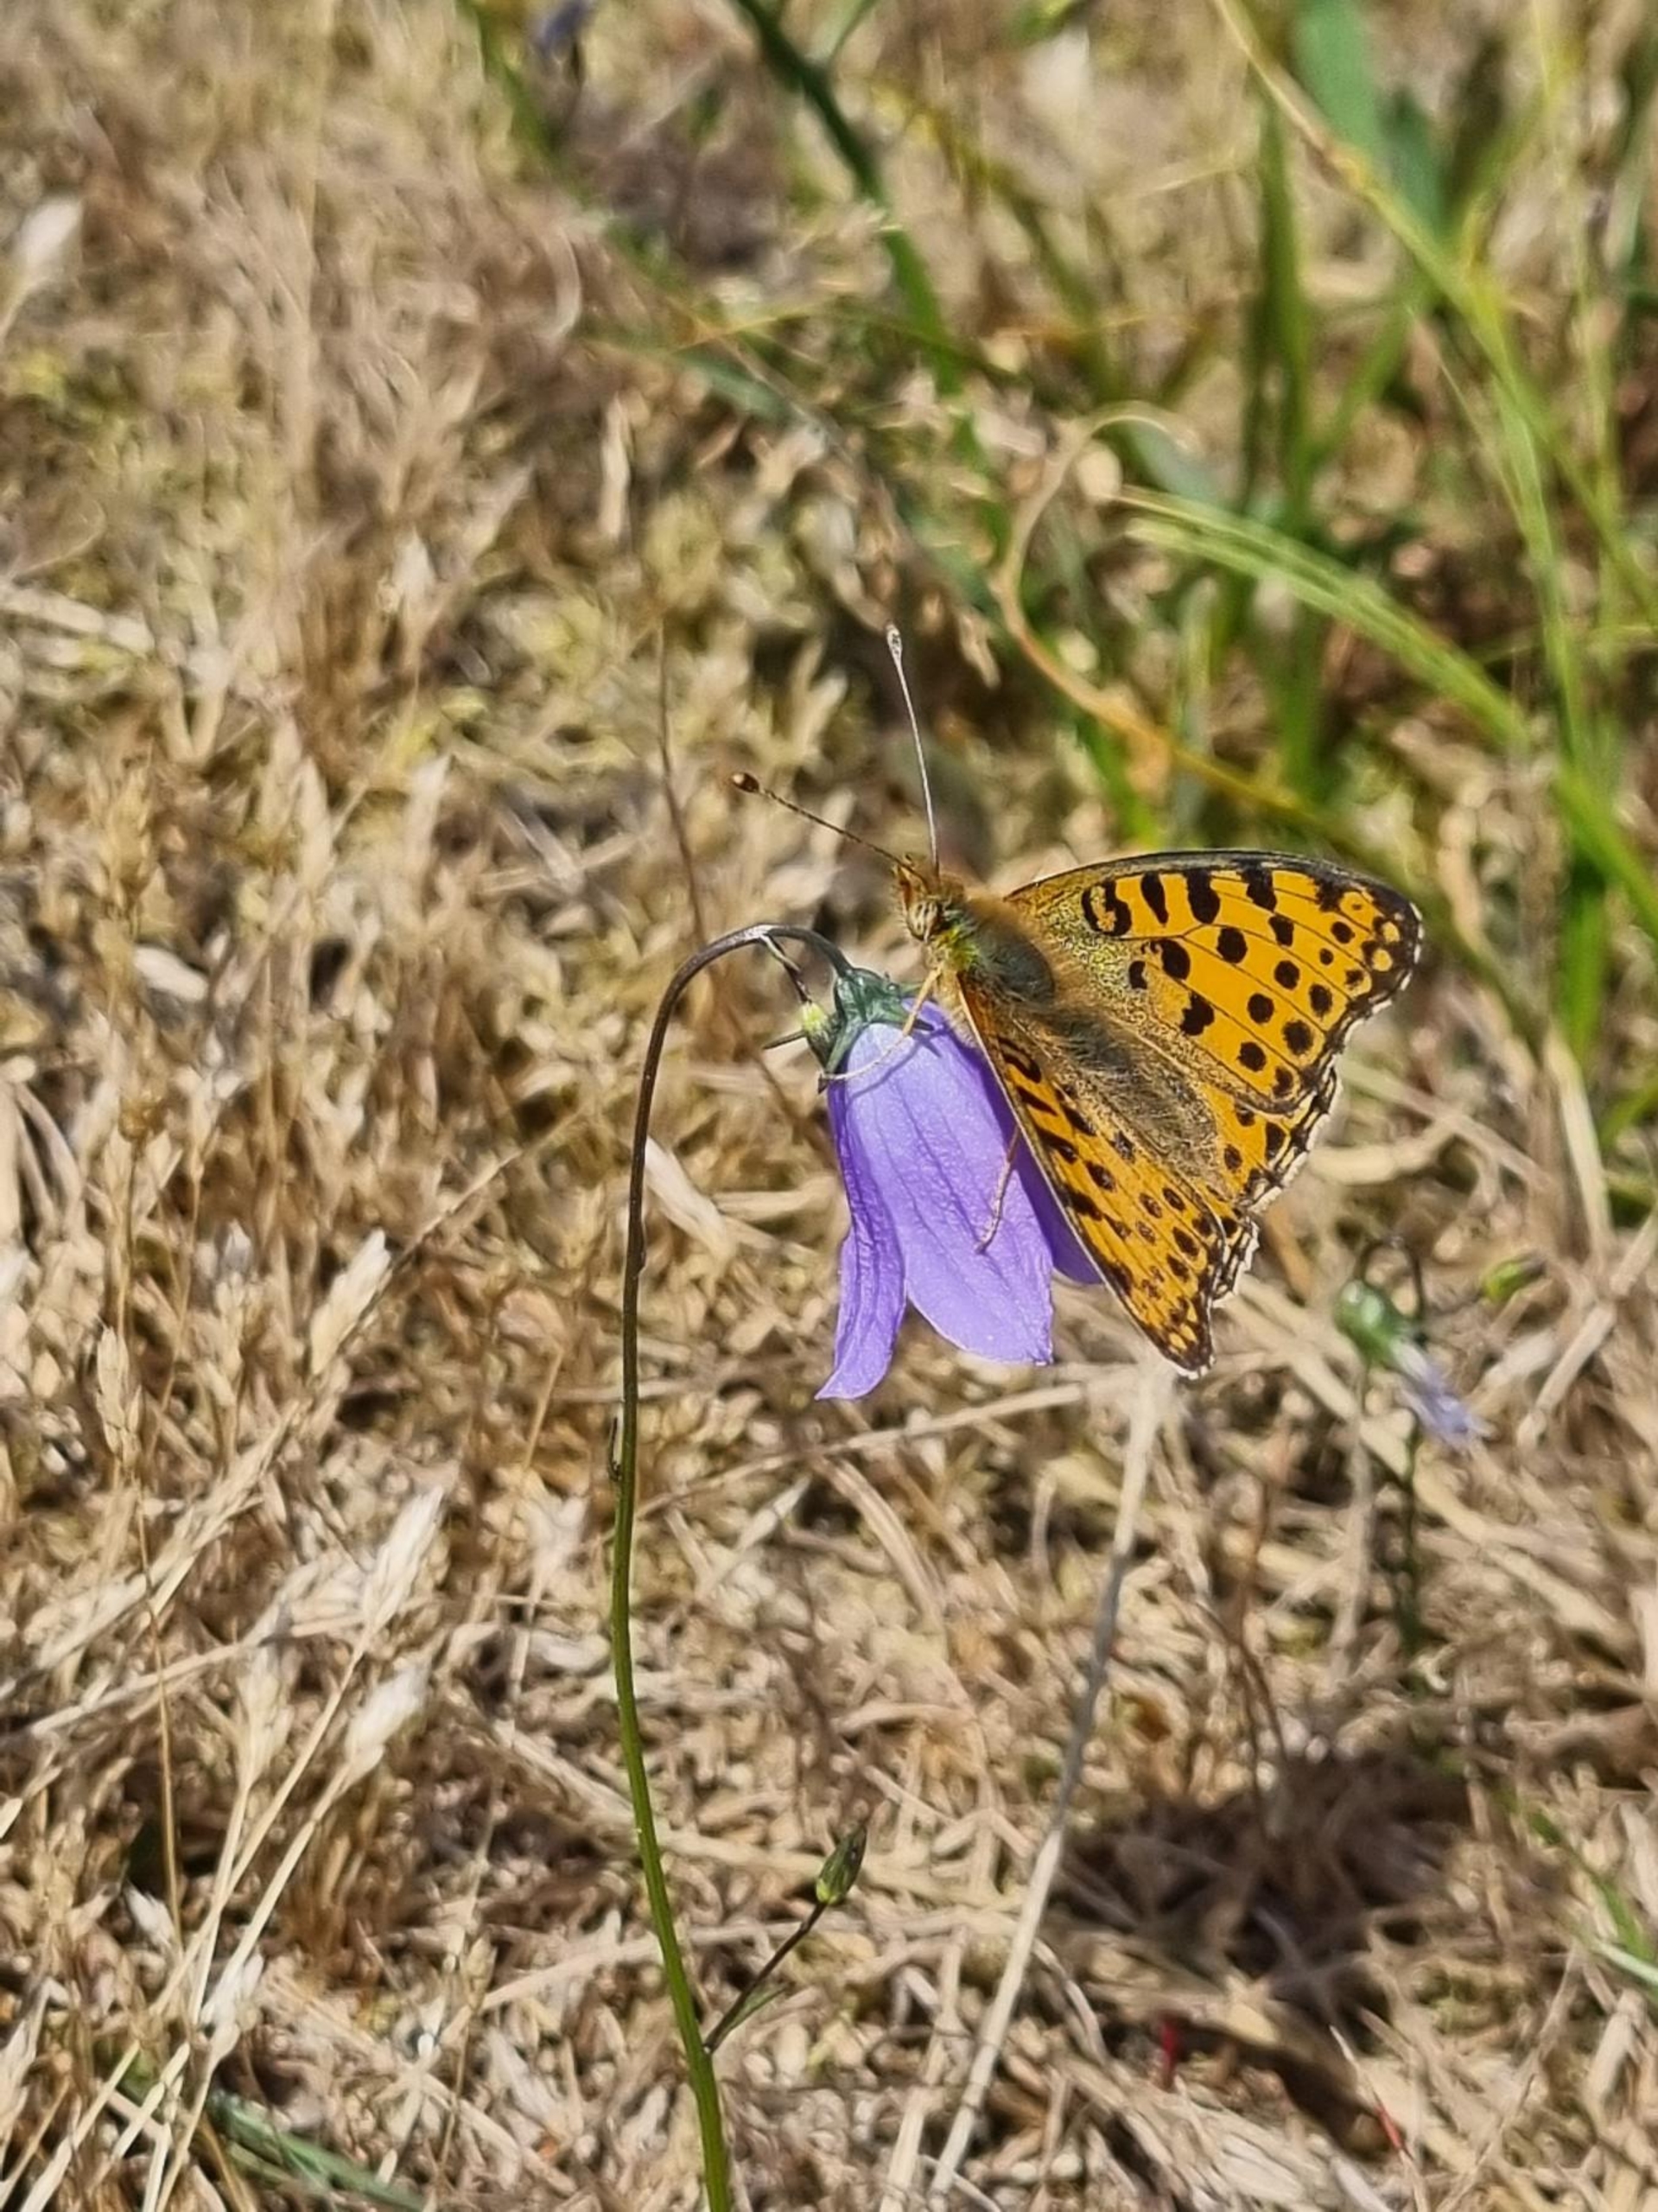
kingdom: Animalia
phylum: Arthropoda
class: Insecta
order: Lepidoptera
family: Nymphalidae
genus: Issoria
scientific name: Issoria lathonia
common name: Storplettet perlemorsommerfugl
